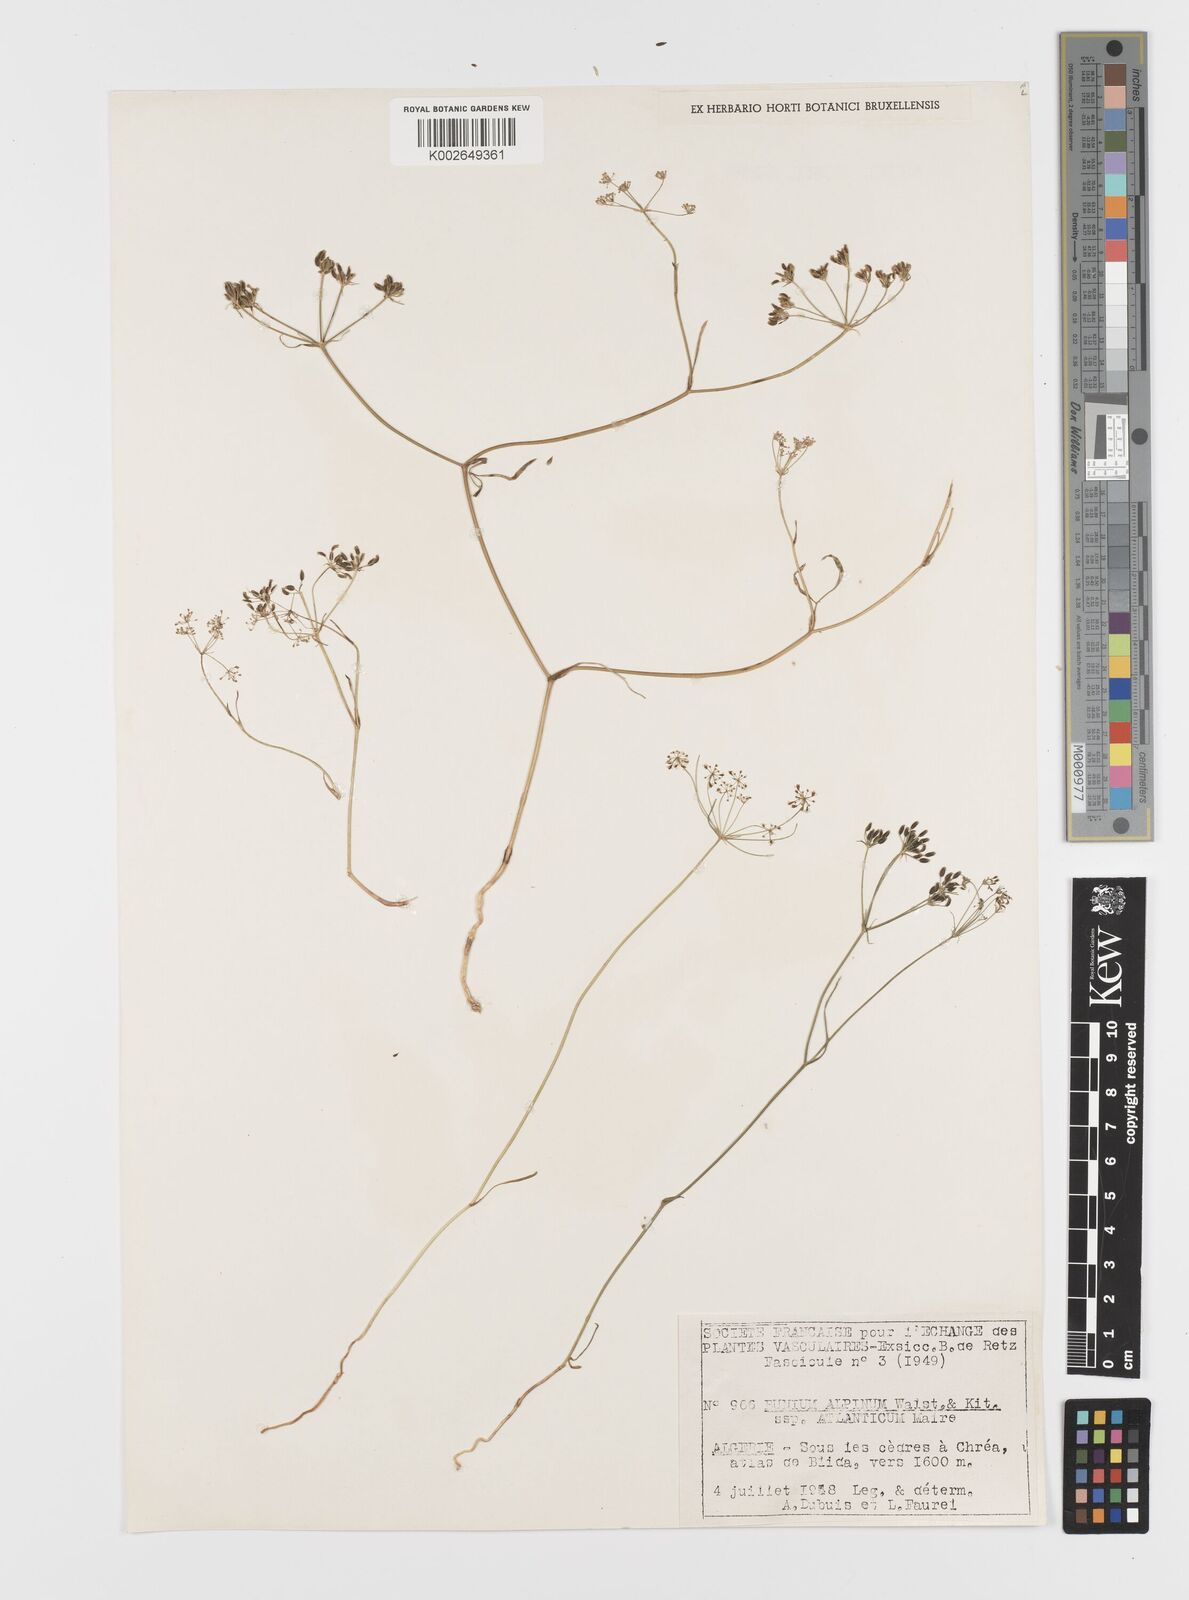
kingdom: Plantae
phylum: Tracheophyta
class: Magnoliopsida
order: Apiales
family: Apiaceae
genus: Bunium
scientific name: Bunium macuca
